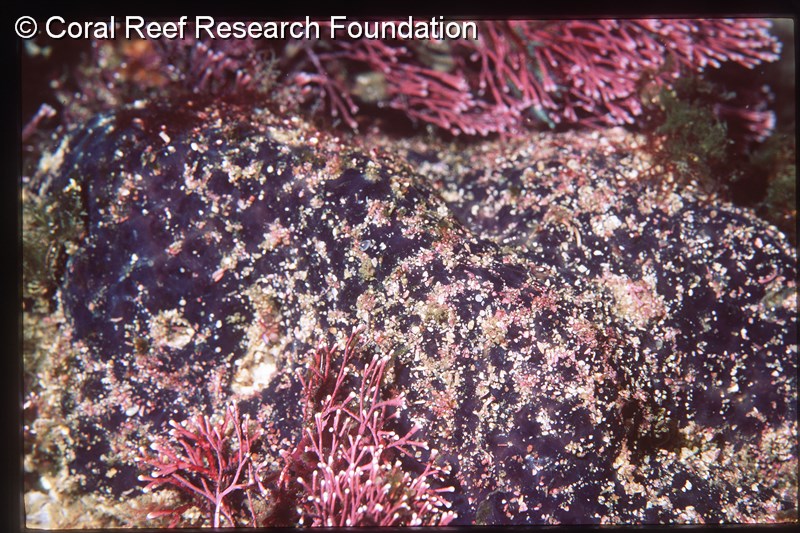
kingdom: Animalia
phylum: Chordata
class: Ascidiacea
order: Aplousobranchia
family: Polyclinidae
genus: Aplidiopsis
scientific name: Aplidiopsis
